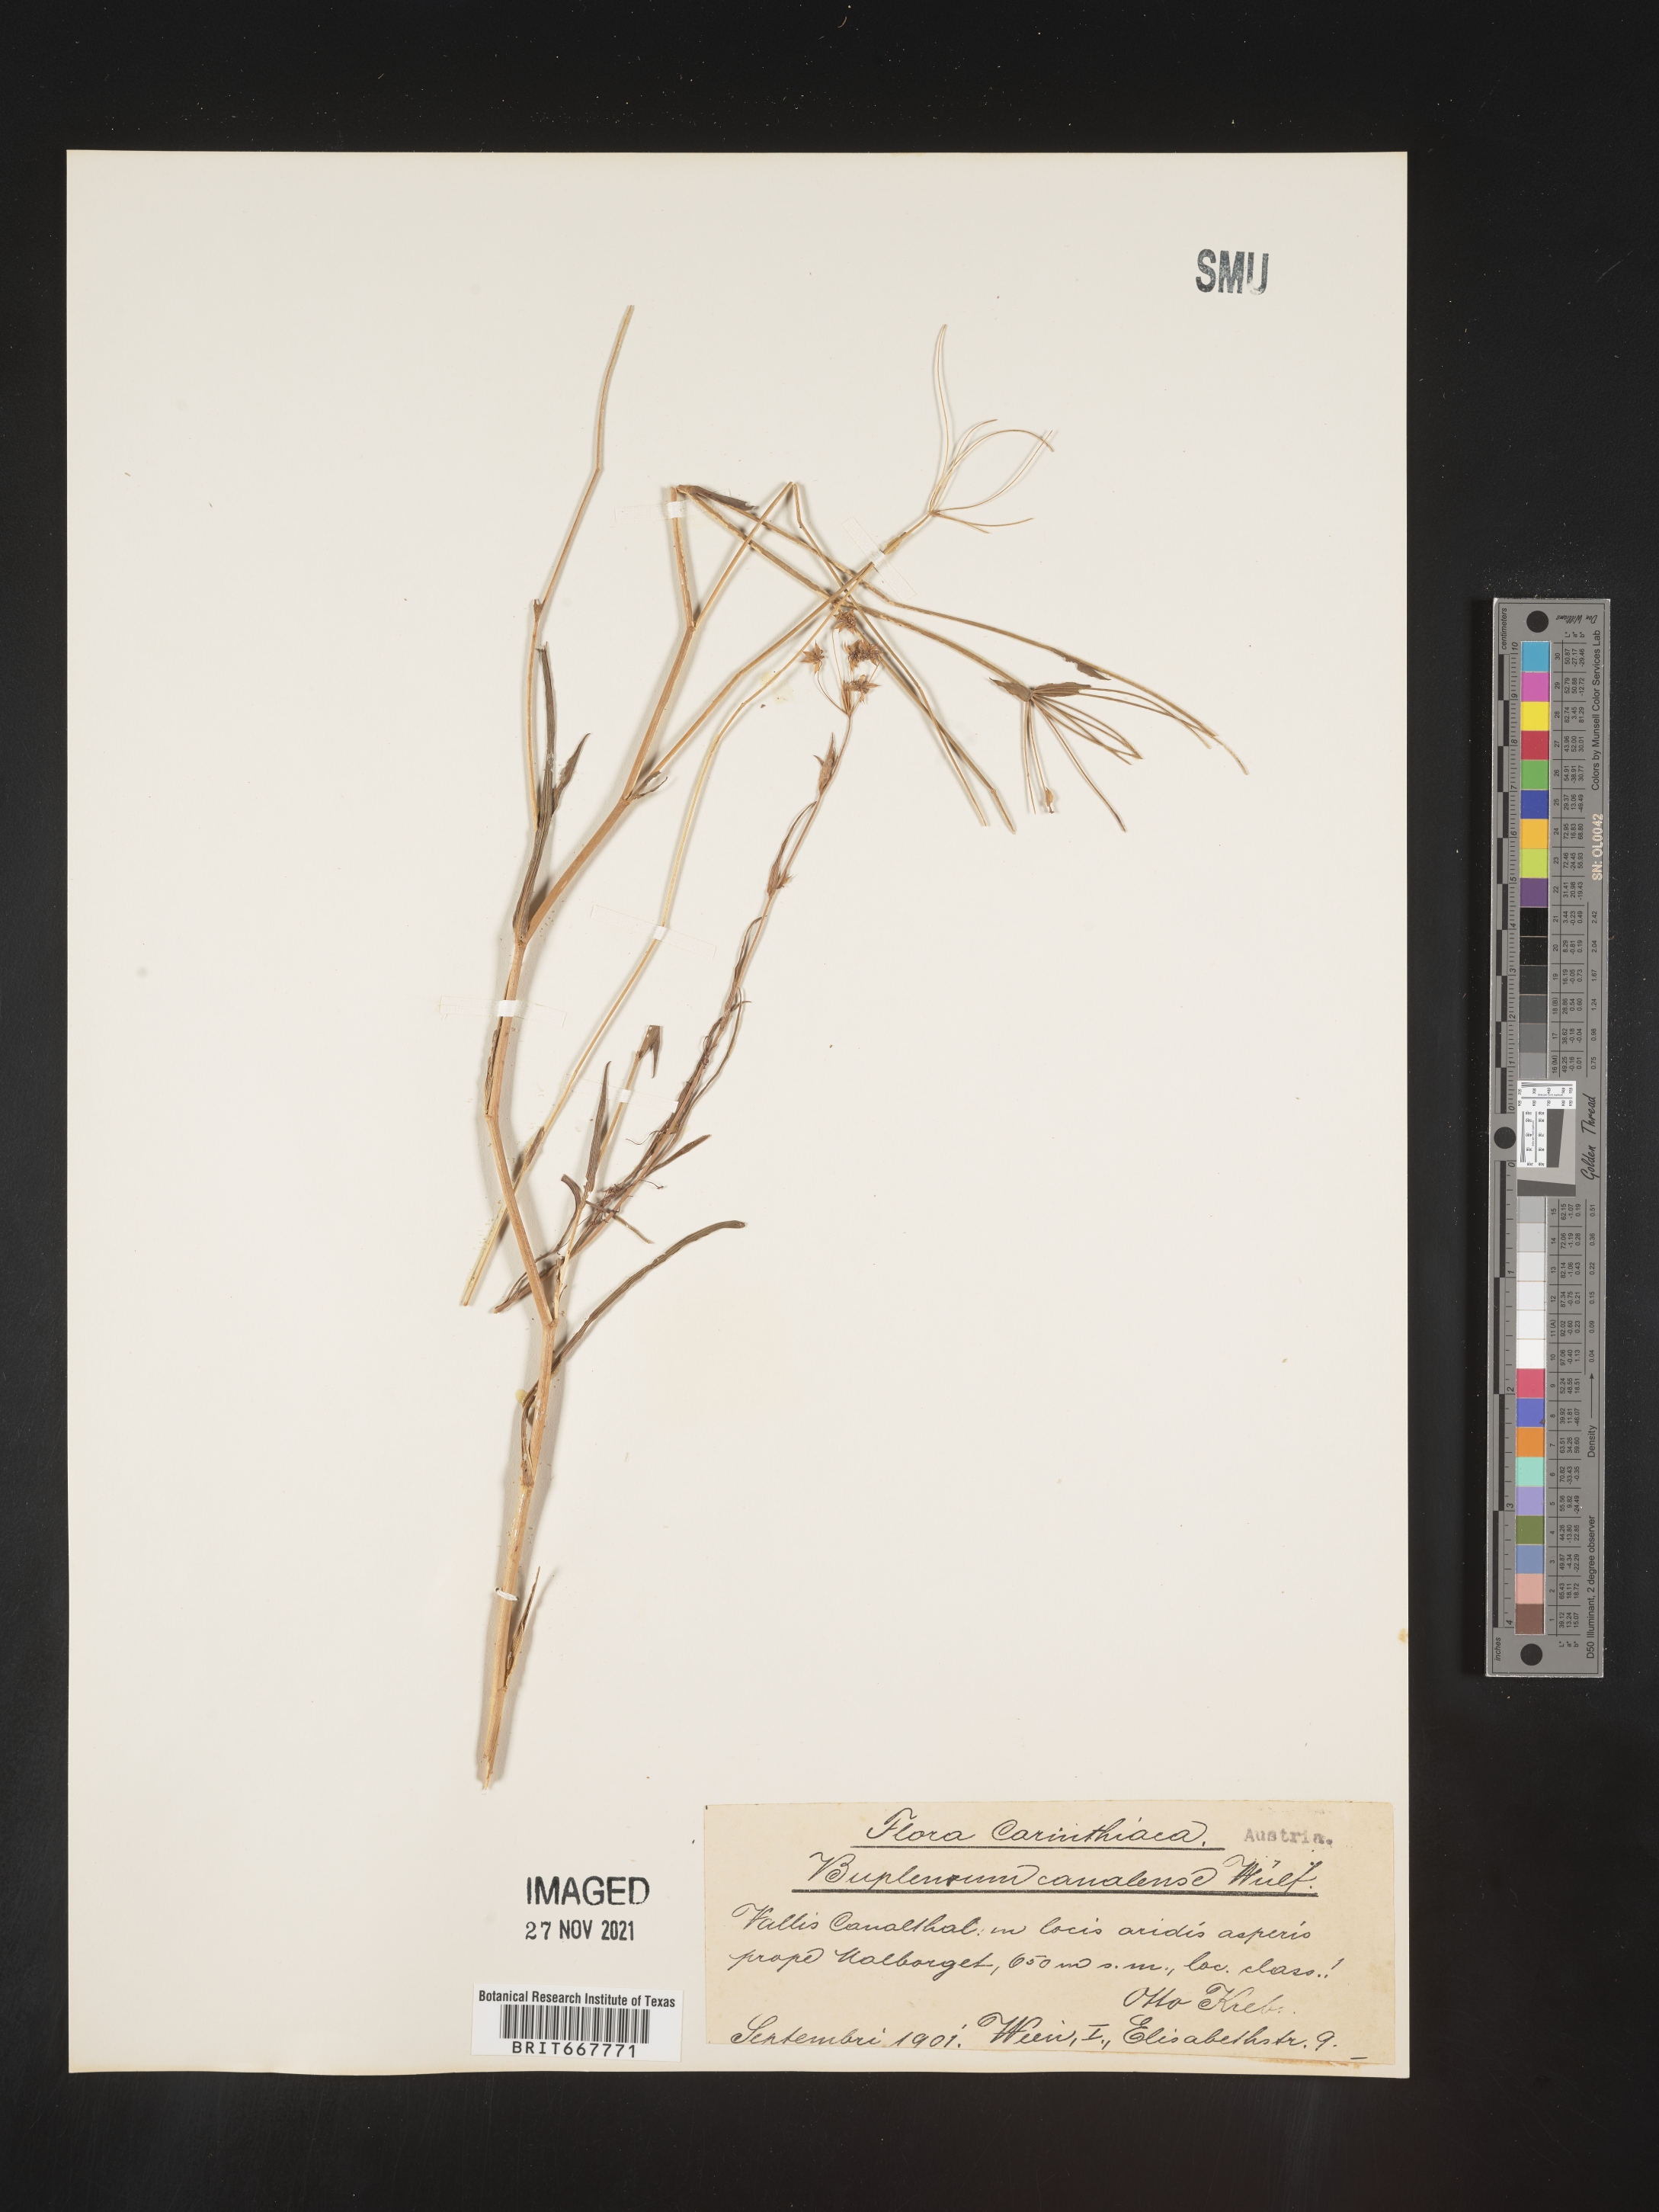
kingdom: Plantae
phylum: Tracheophyta
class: Magnoliopsida
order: Apiales
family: Apiaceae
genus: Bupleurum
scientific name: Bupleurum
